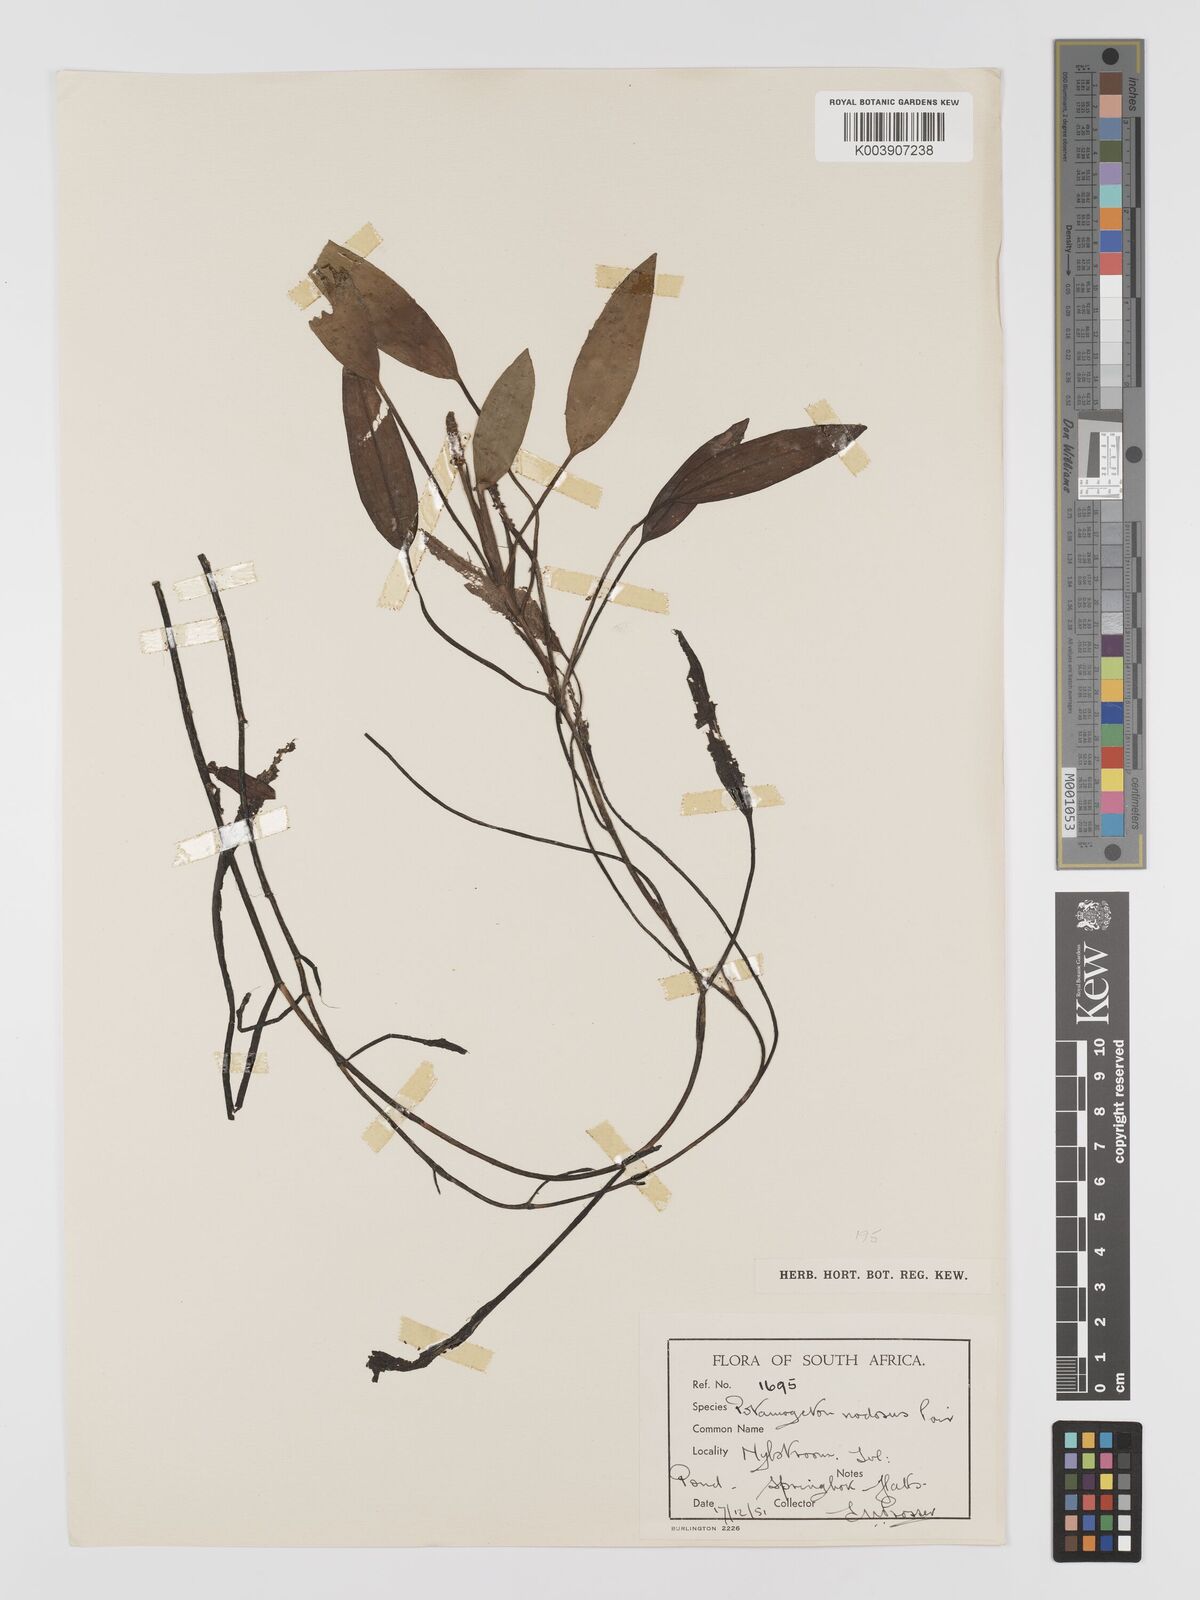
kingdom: Plantae
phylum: Tracheophyta
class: Liliopsida
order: Alismatales
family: Potamogetonaceae
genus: Potamogeton
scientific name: Potamogeton nodosus
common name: Loddon pondweed
